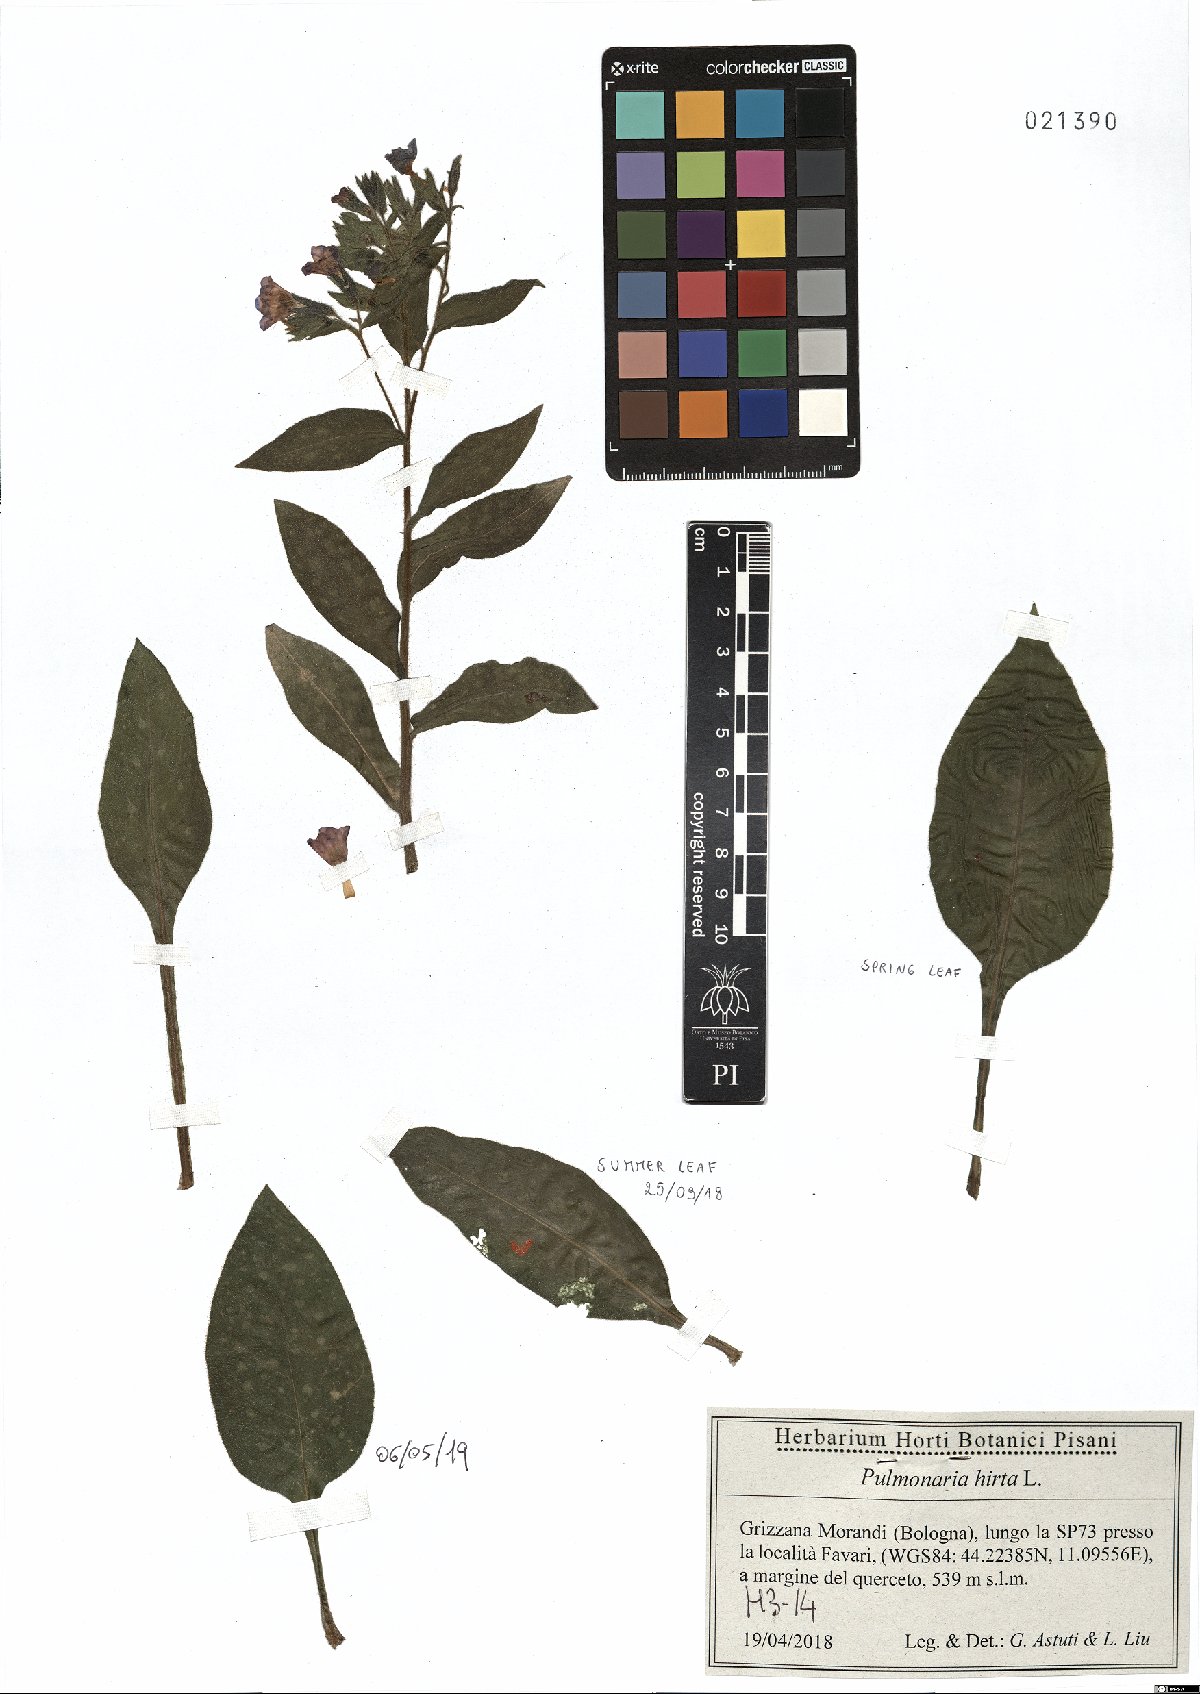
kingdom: Plantae
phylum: Tracheophyta
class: Magnoliopsida
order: Boraginales
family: Boraginaceae
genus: Pulmonaria
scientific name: Pulmonaria hirta
